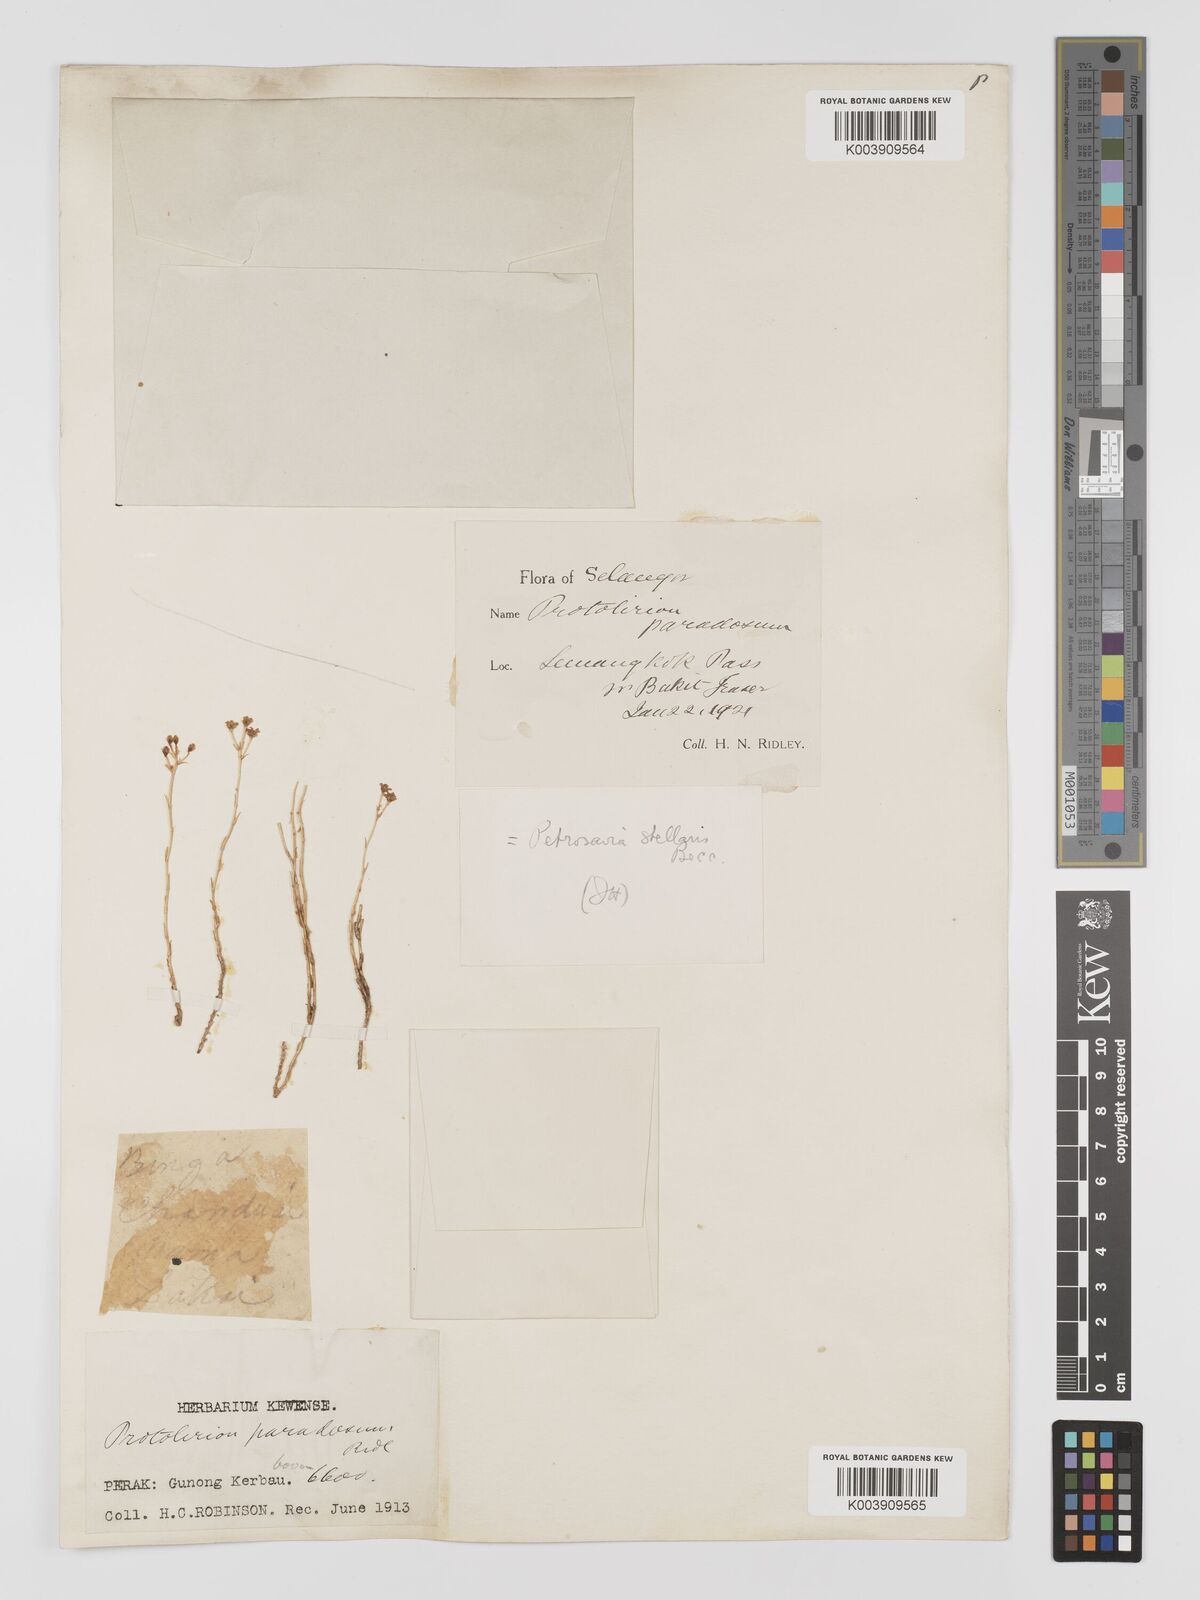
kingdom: Plantae
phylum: Tracheophyta
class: Liliopsida
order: Petrosaviales
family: Petrosaviaceae
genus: Petrosavia
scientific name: Petrosavia stellaris
